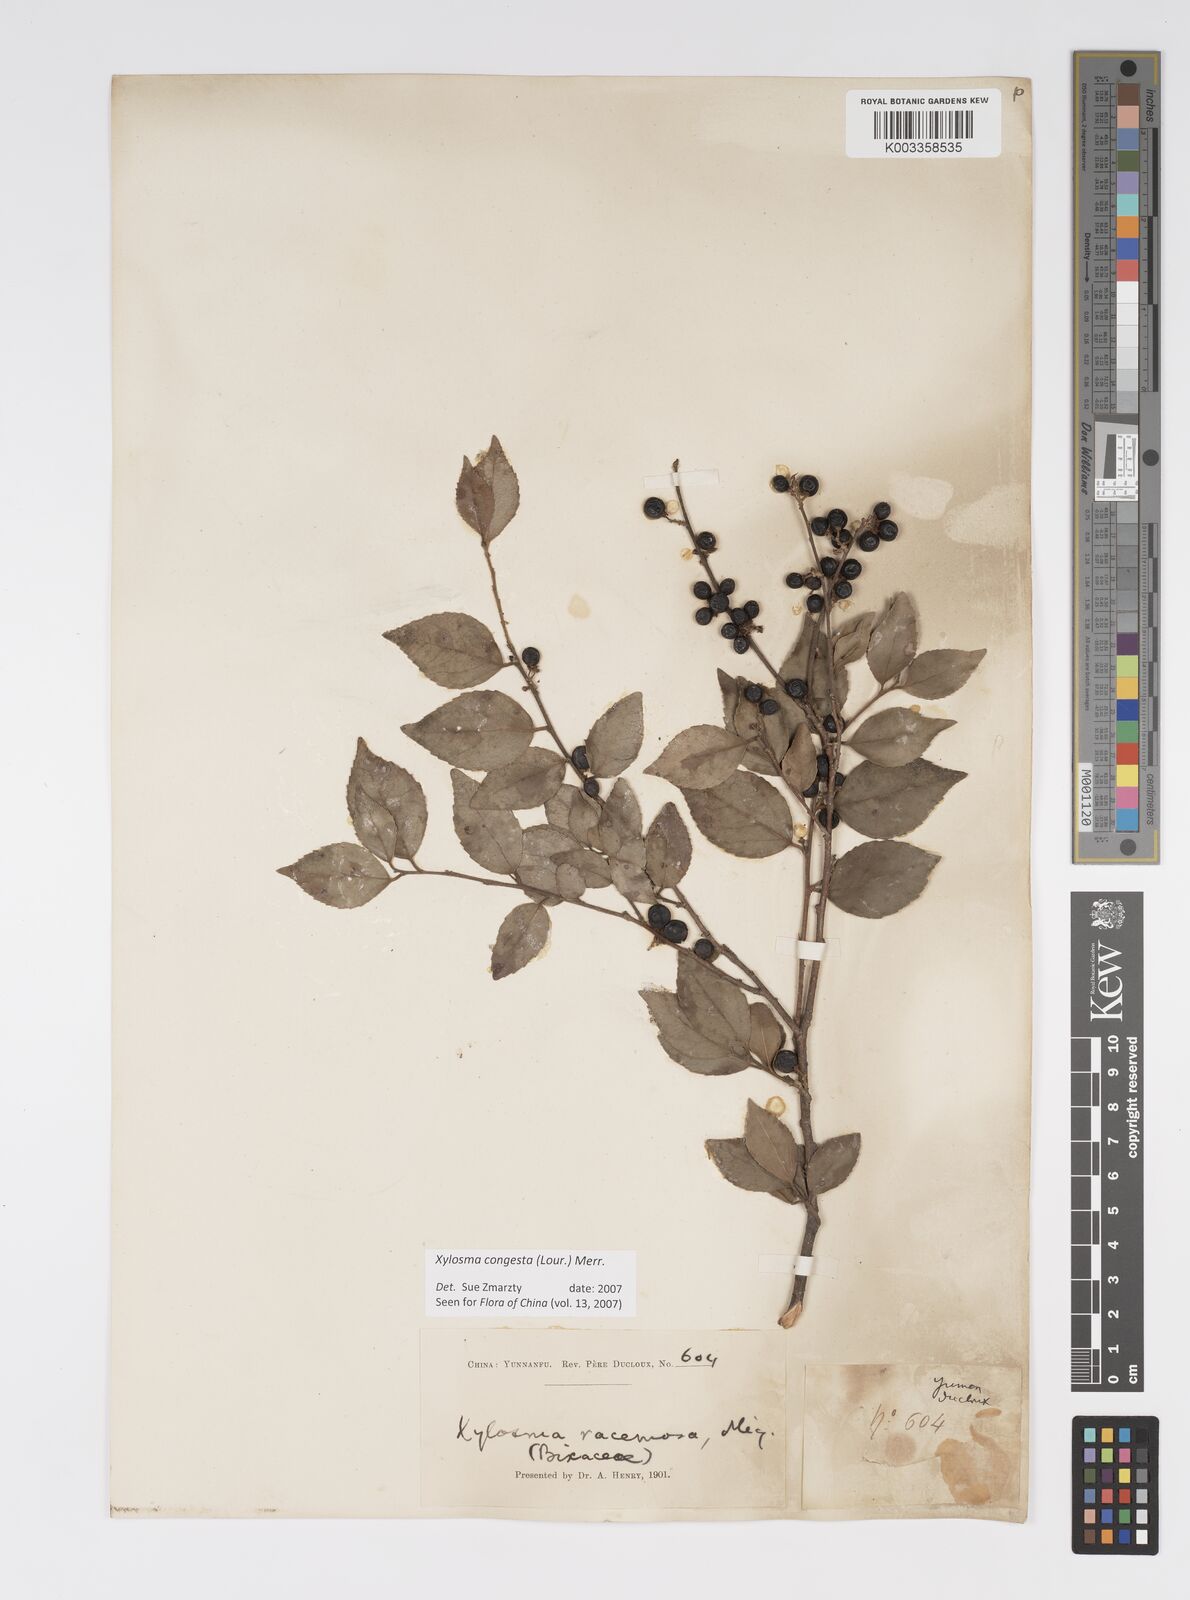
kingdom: Plantae
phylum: Tracheophyta
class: Magnoliopsida
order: Malpighiales
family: Salicaceae
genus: Xylosma
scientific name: Xylosma racemosum
